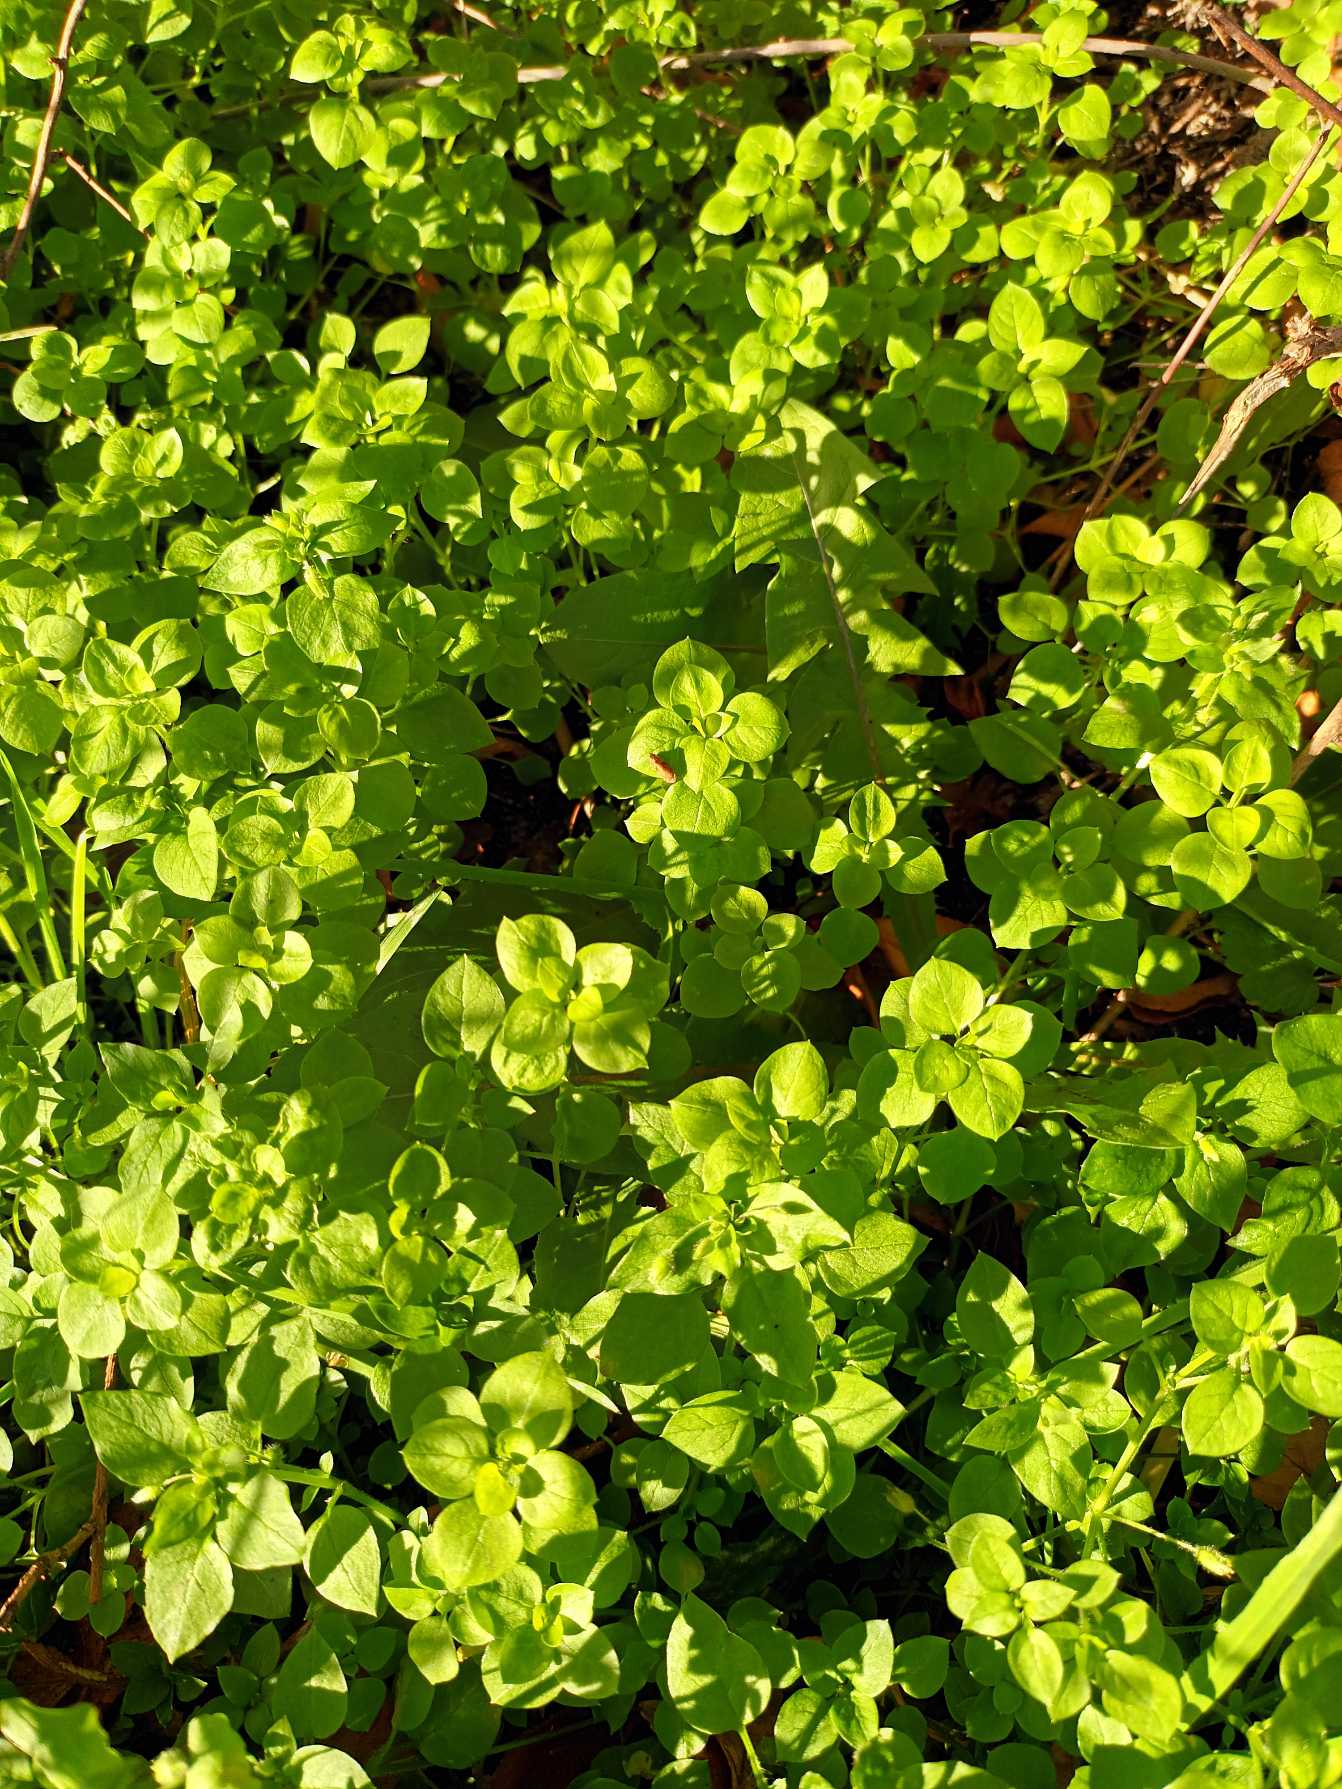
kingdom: Plantae
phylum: Tracheophyta
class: Magnoliopsida
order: Caryophyllales
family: Caryophyllaceae
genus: Stellaria
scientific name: Stellaria media
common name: Almindelig fuglegræs
